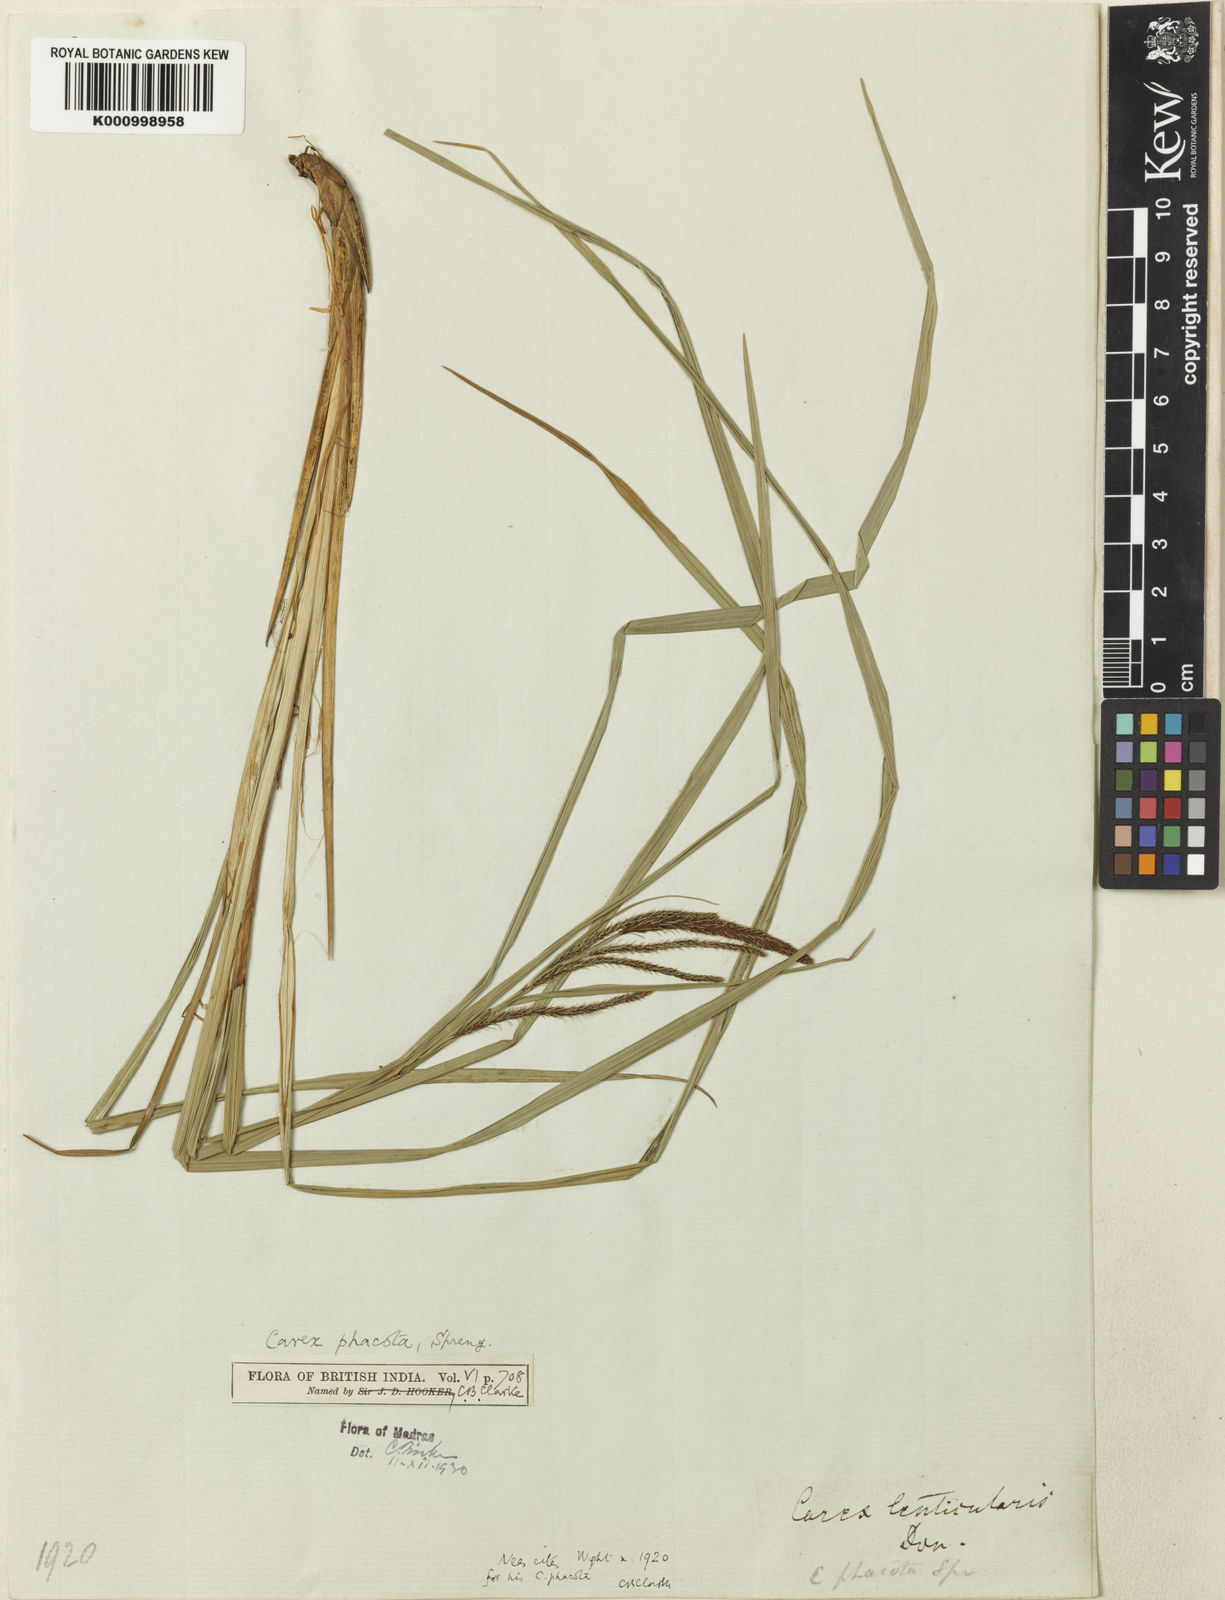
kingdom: Plantae
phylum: Tracheophyta
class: Liliopsida
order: Poales
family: Cyperaceae
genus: Carex
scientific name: Carex phacota
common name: Lakeshore sedge
